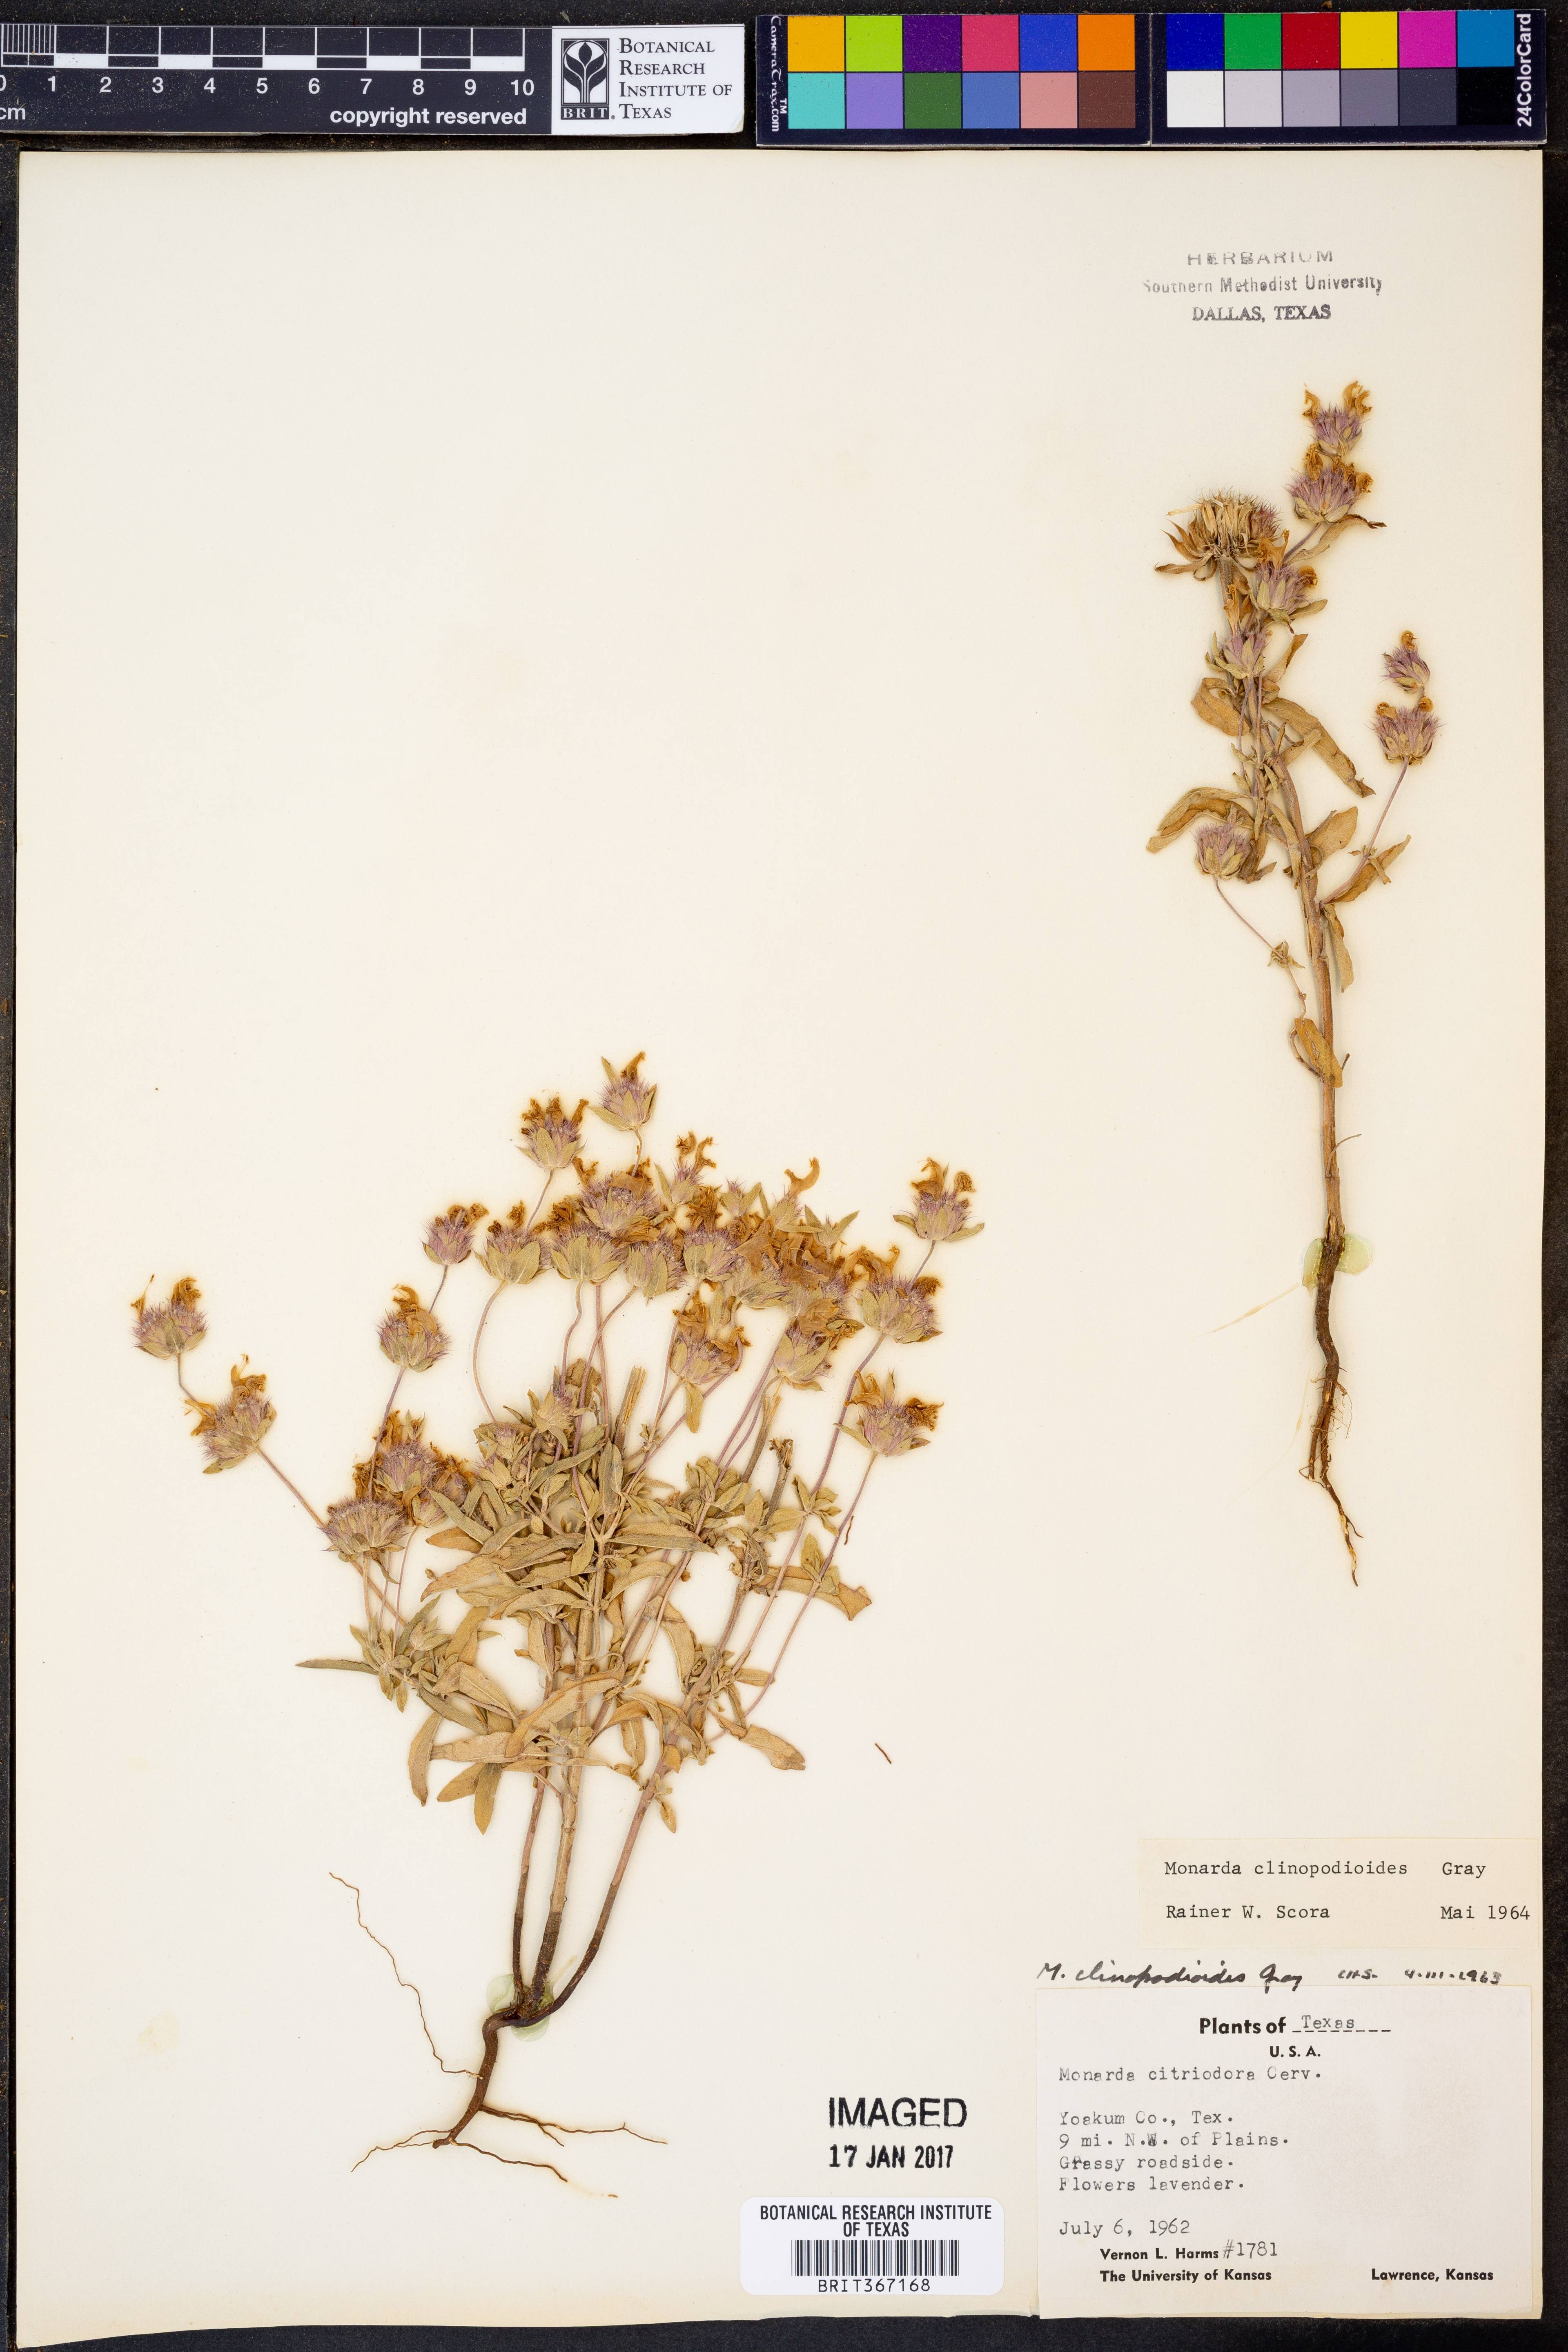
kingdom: Plantae
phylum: Tracheophyta
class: Magnoliopsida
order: Lamiales
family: Lamiaceae
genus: Monarda
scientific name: Monarda clinopodioides
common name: Basil beebalm
